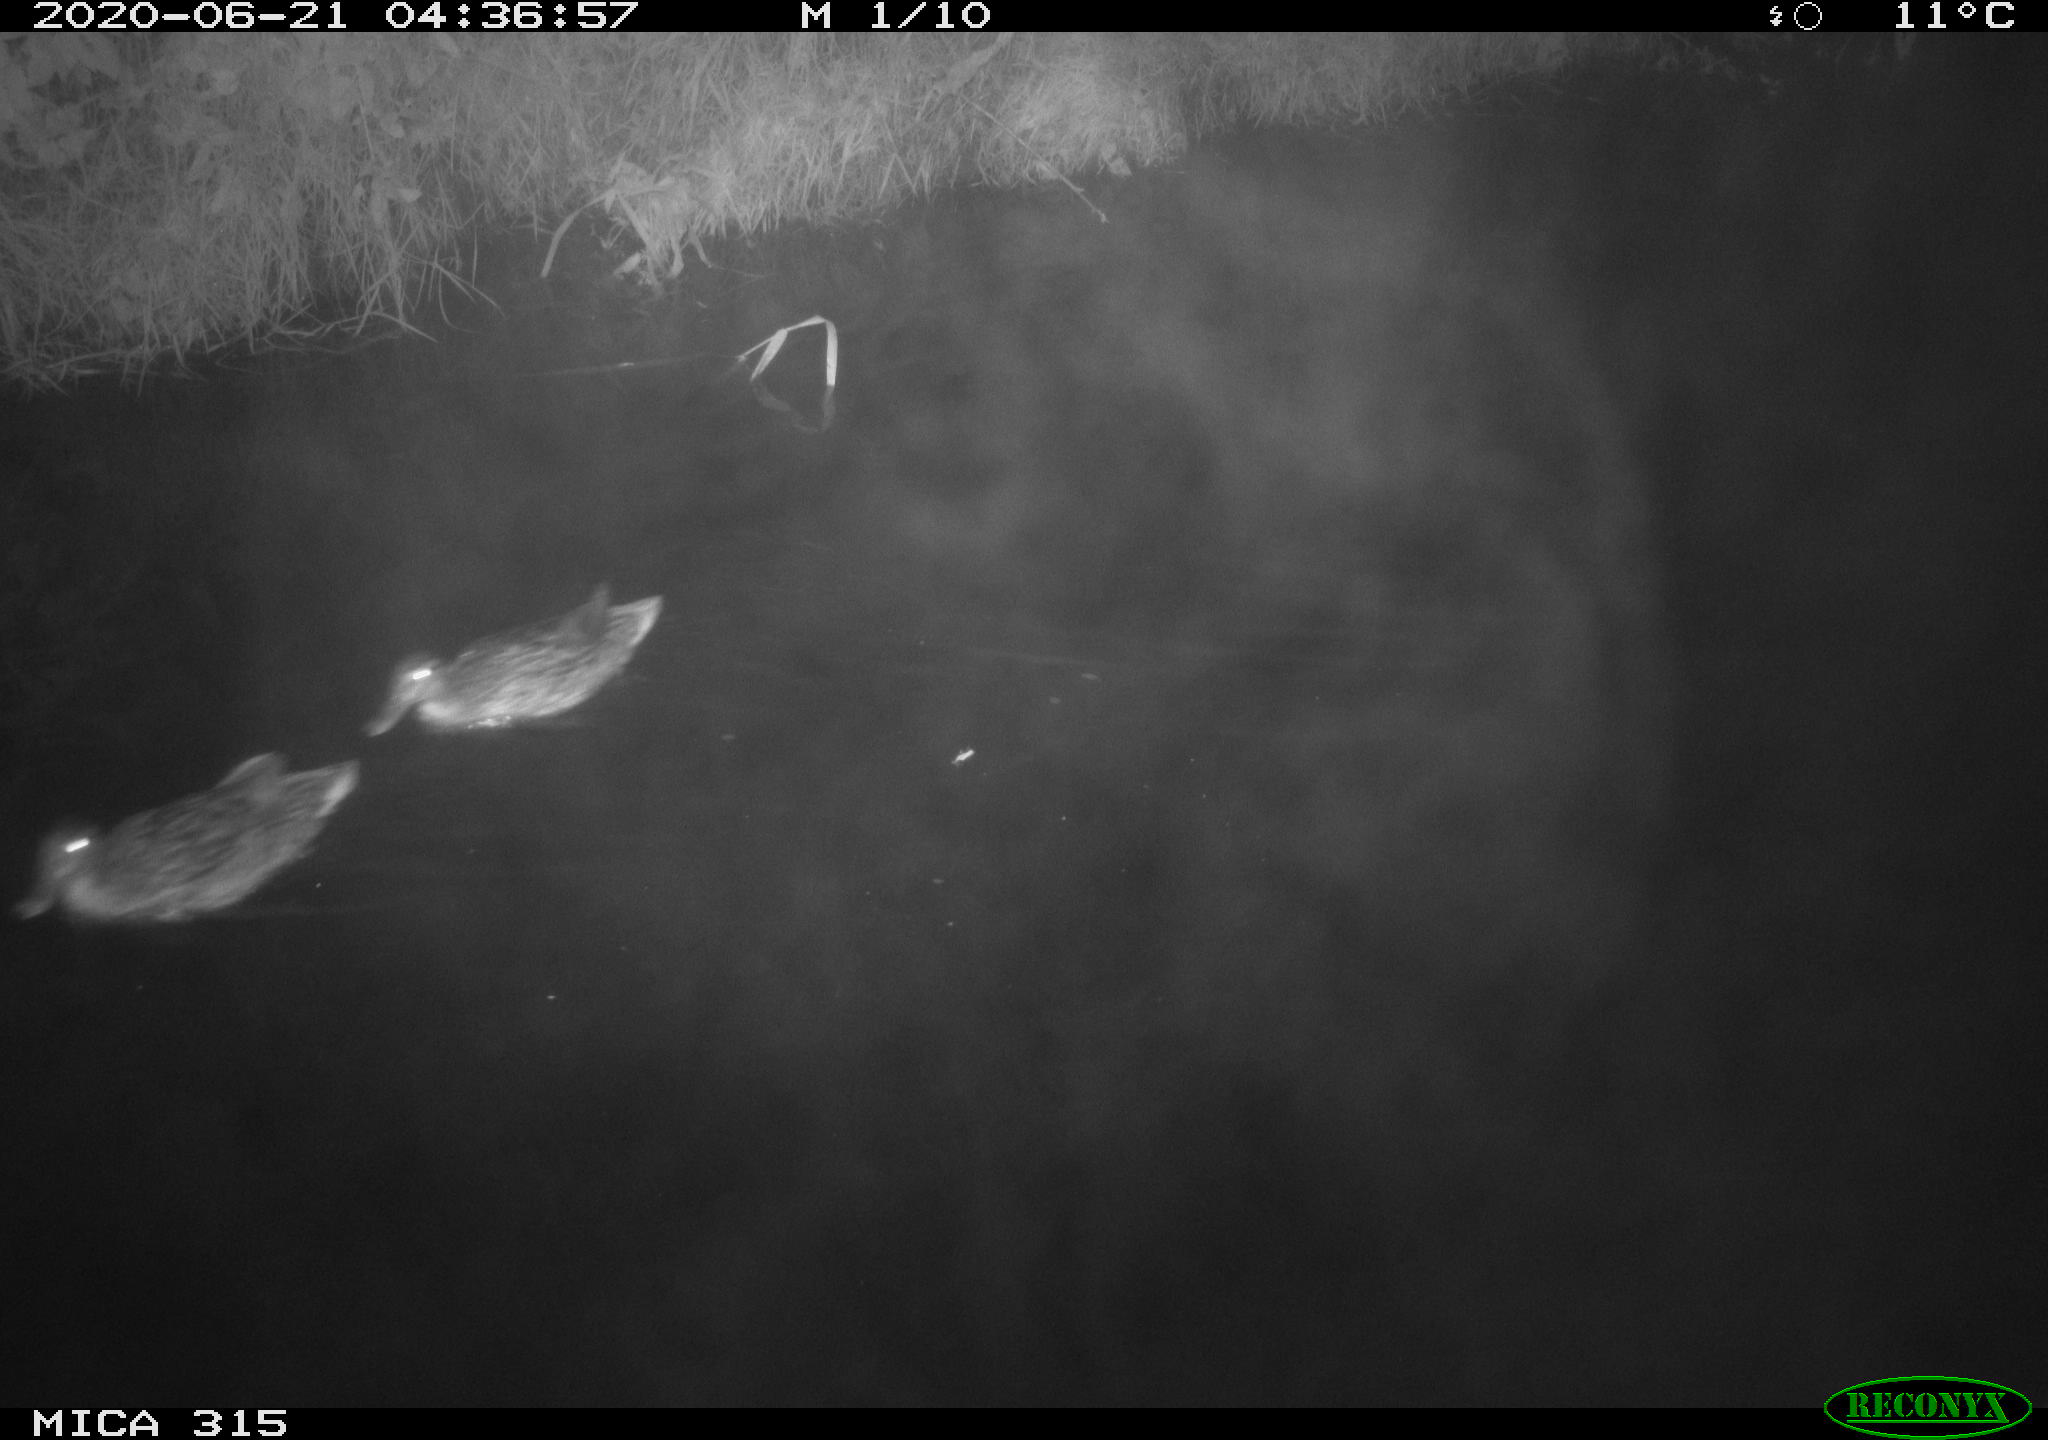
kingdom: Animalia
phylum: Chordata
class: Aves
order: Anseriformes
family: Anatidae
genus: Anas
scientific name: Anas platyrhynchos
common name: Mallard
